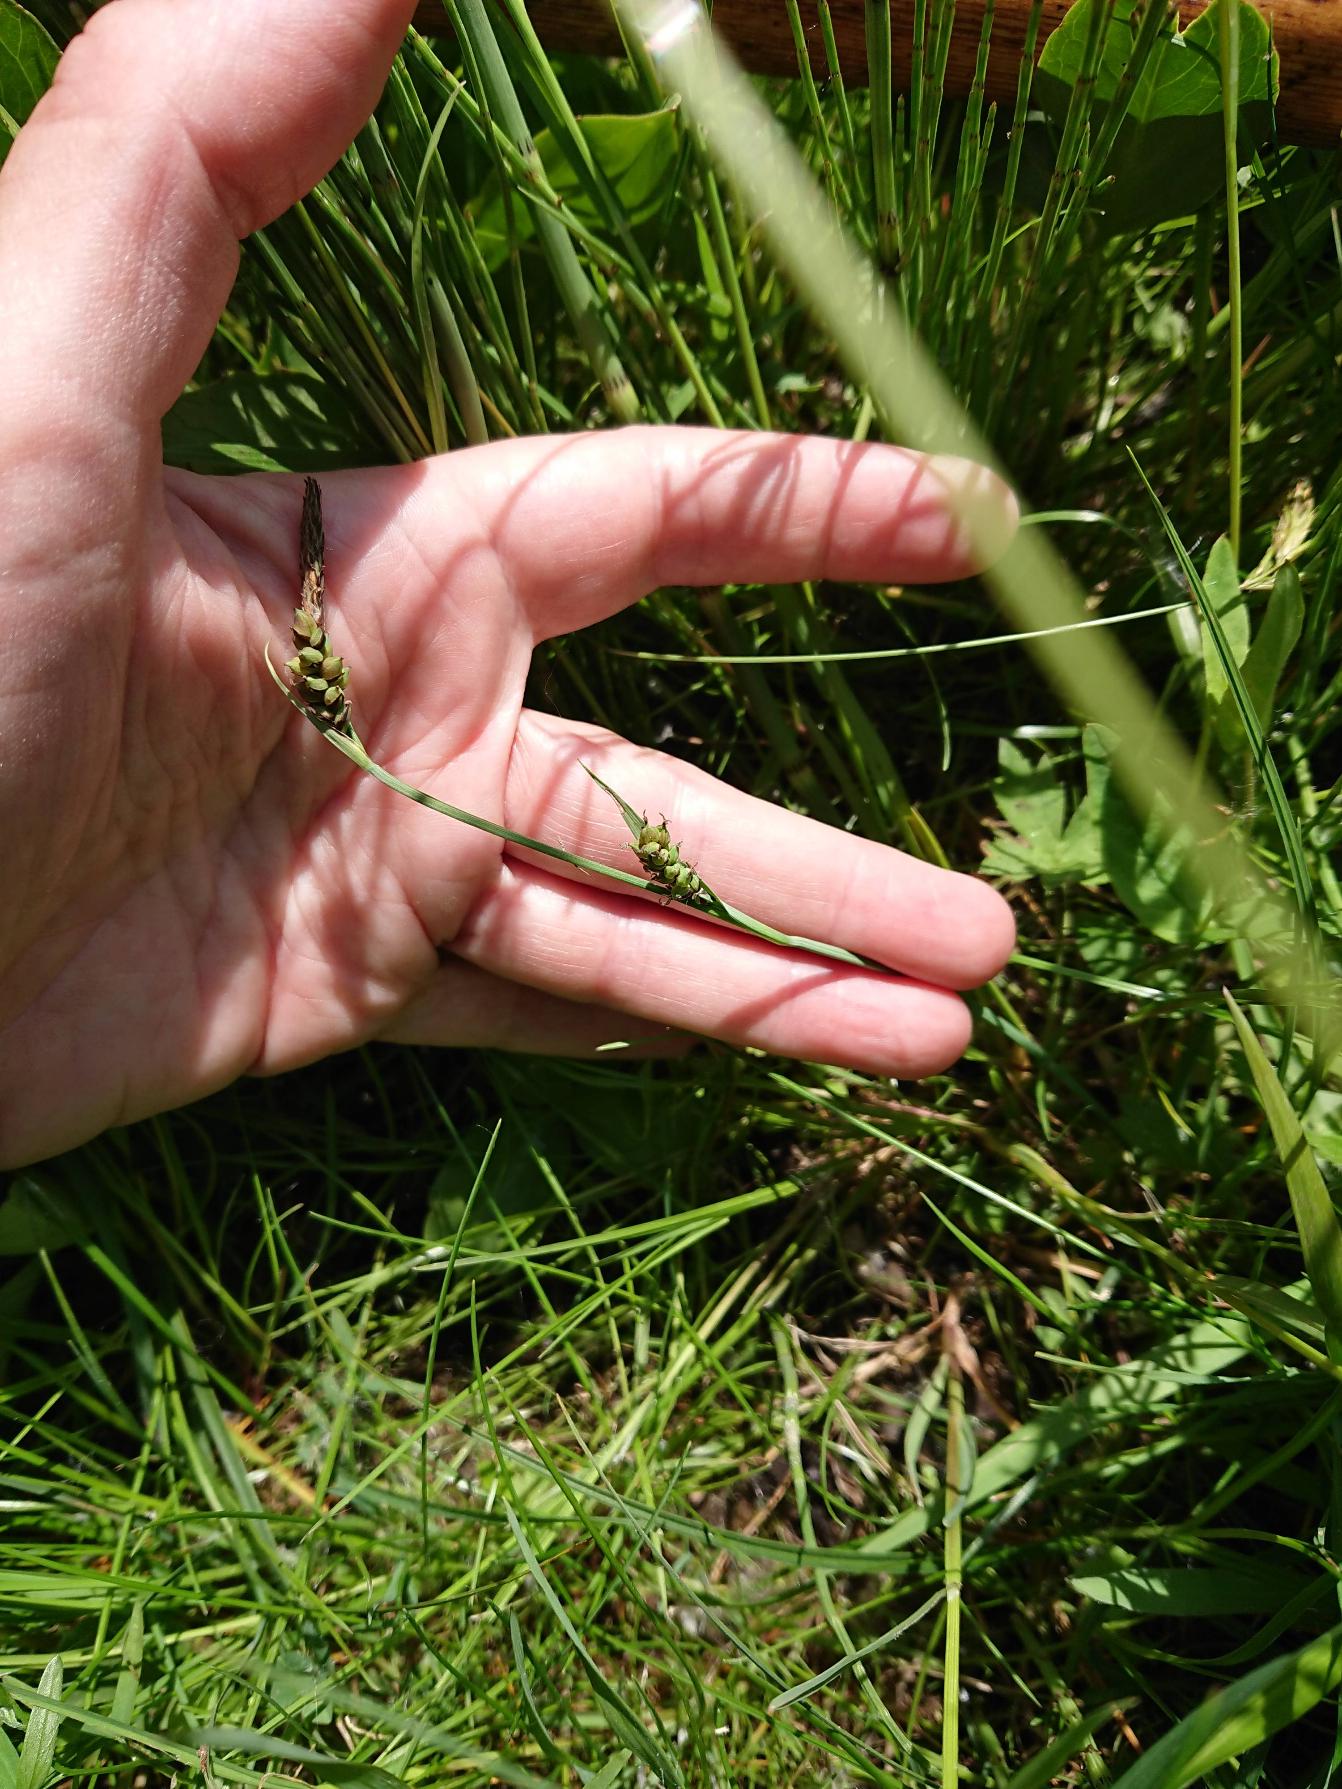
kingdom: Plantae
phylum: Tracheophyta
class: Liliopsida
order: Poales
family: Cyperaceae
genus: Carex
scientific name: Carex panicea
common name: Hirse-star
